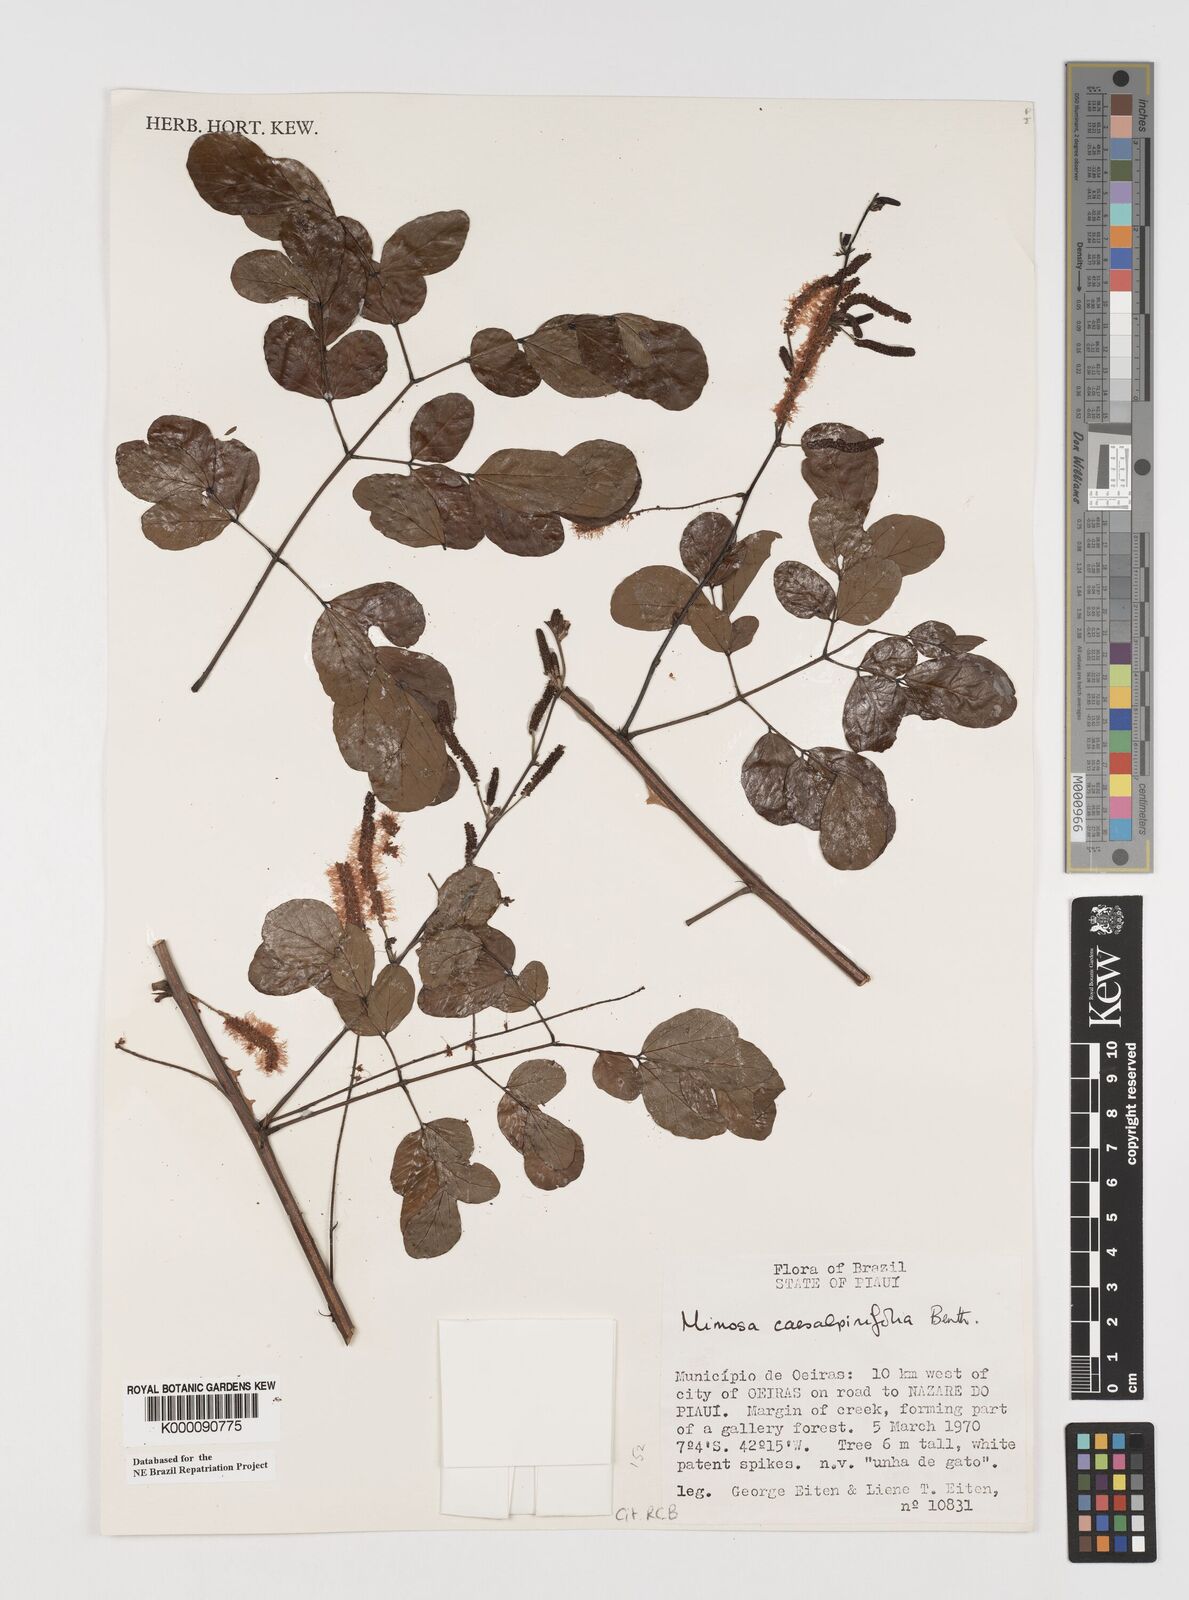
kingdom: Plantae
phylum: Tracheophyta
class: Magnoliopsida
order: Fabales
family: Fabaceae
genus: Mimosa
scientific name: Mimosa caesalpiniifolia
